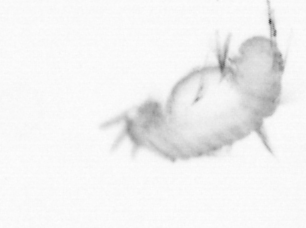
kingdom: Animalia
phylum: Annelida
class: Polychaeta
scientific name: Polychaeta
